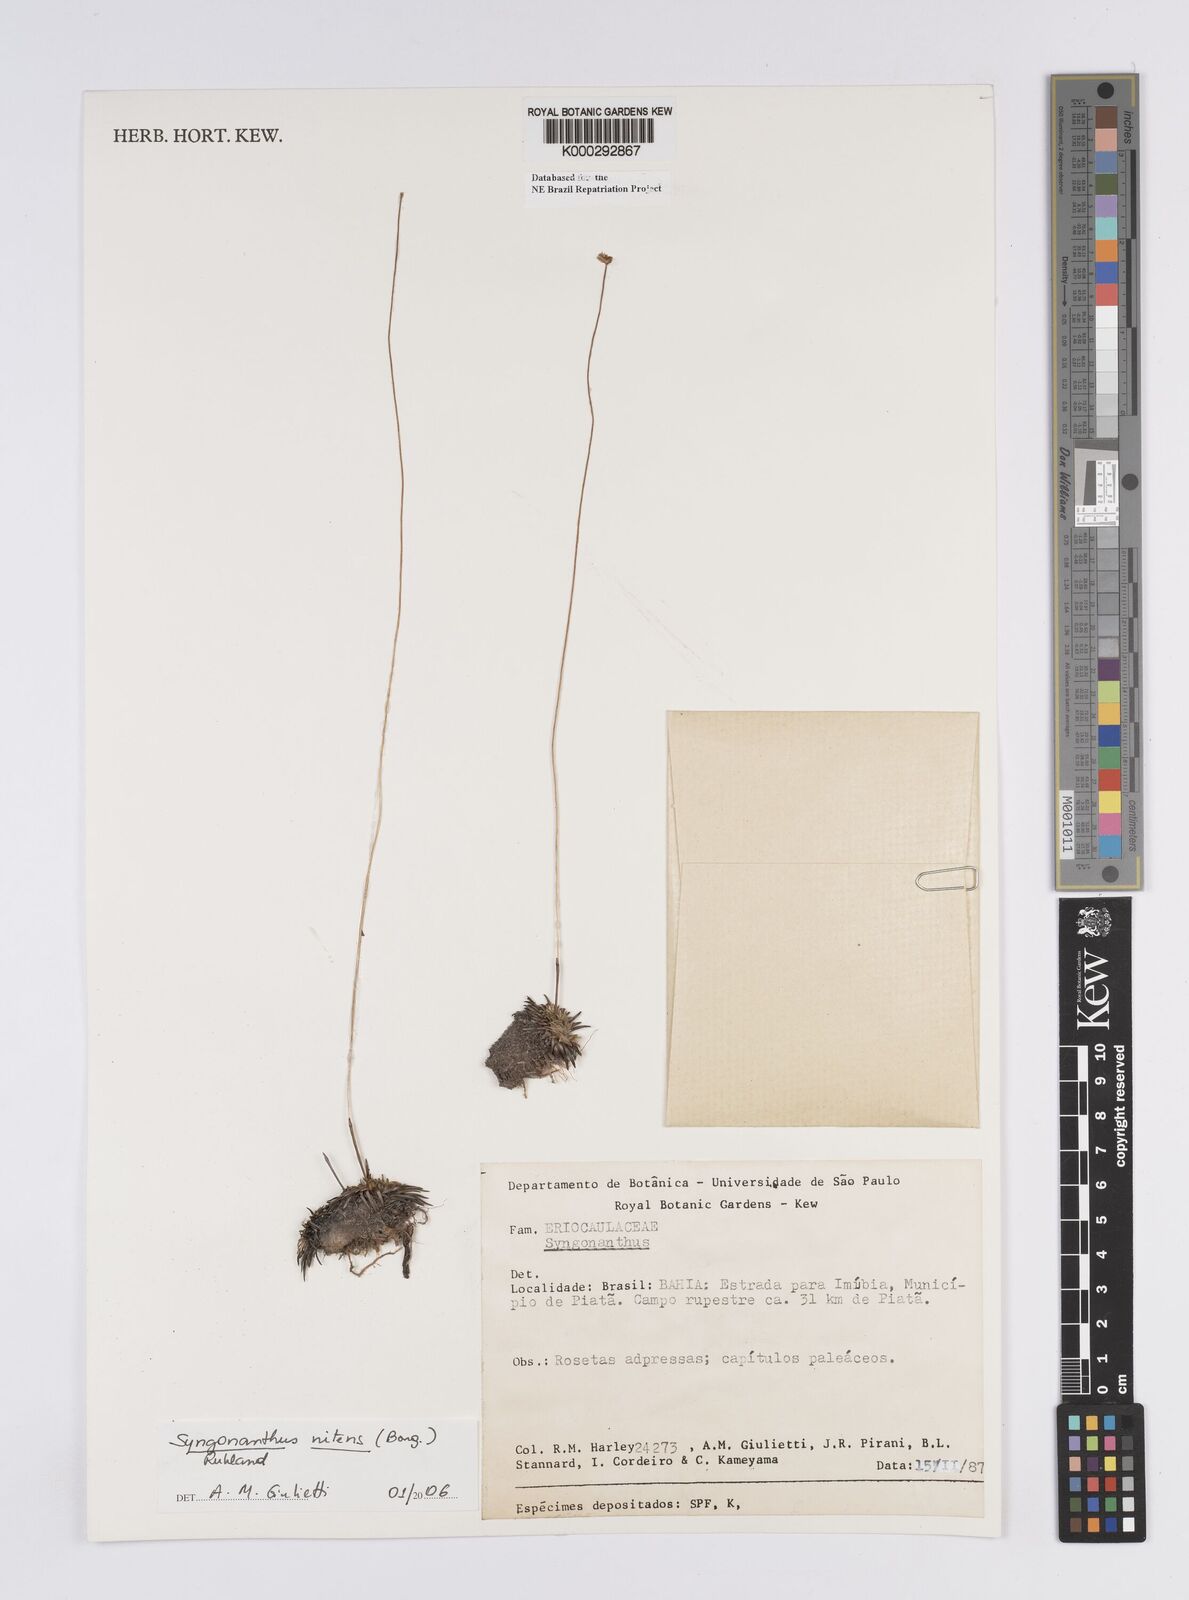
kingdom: Plantae
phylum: Tracheophyta
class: Liliopsida
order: Poales
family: Eriocaulaceae
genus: Syngonanthus
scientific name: Syngonanthus
